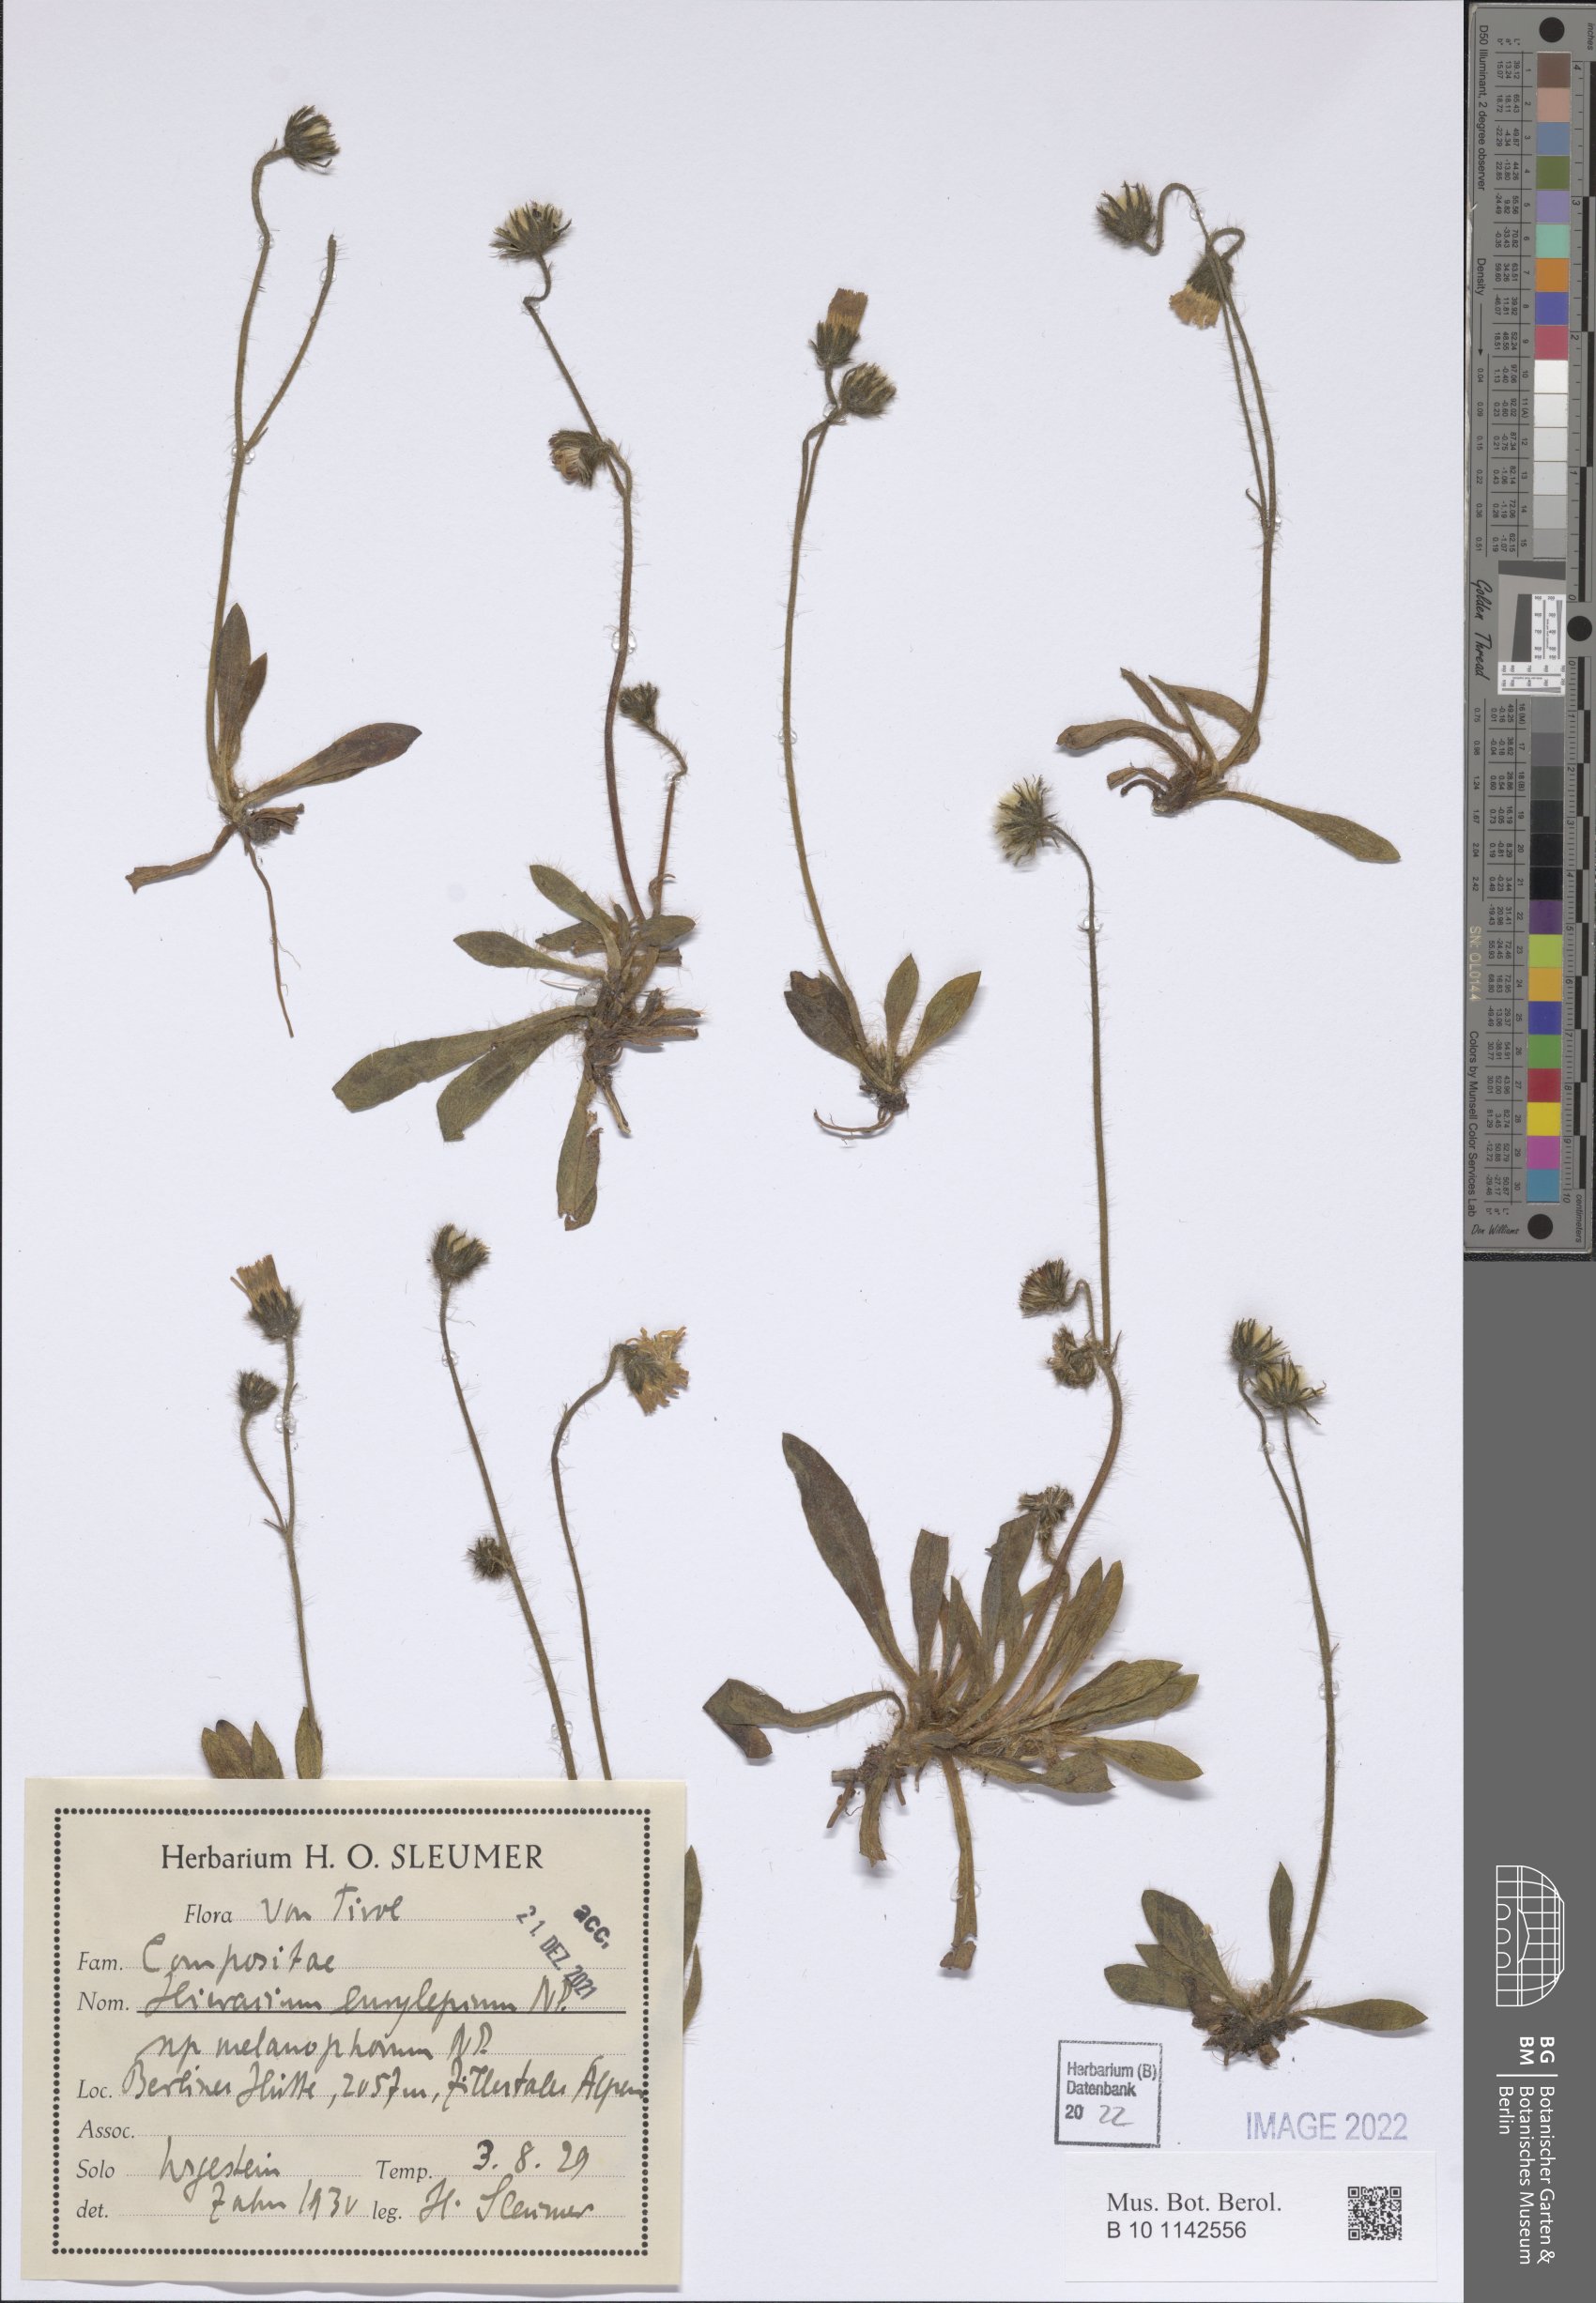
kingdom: Plantae
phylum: Tracheophyta
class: Magnoliopsida
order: Asterales
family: Asteraceae
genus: Pilosella
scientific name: Pilosella pachypila
